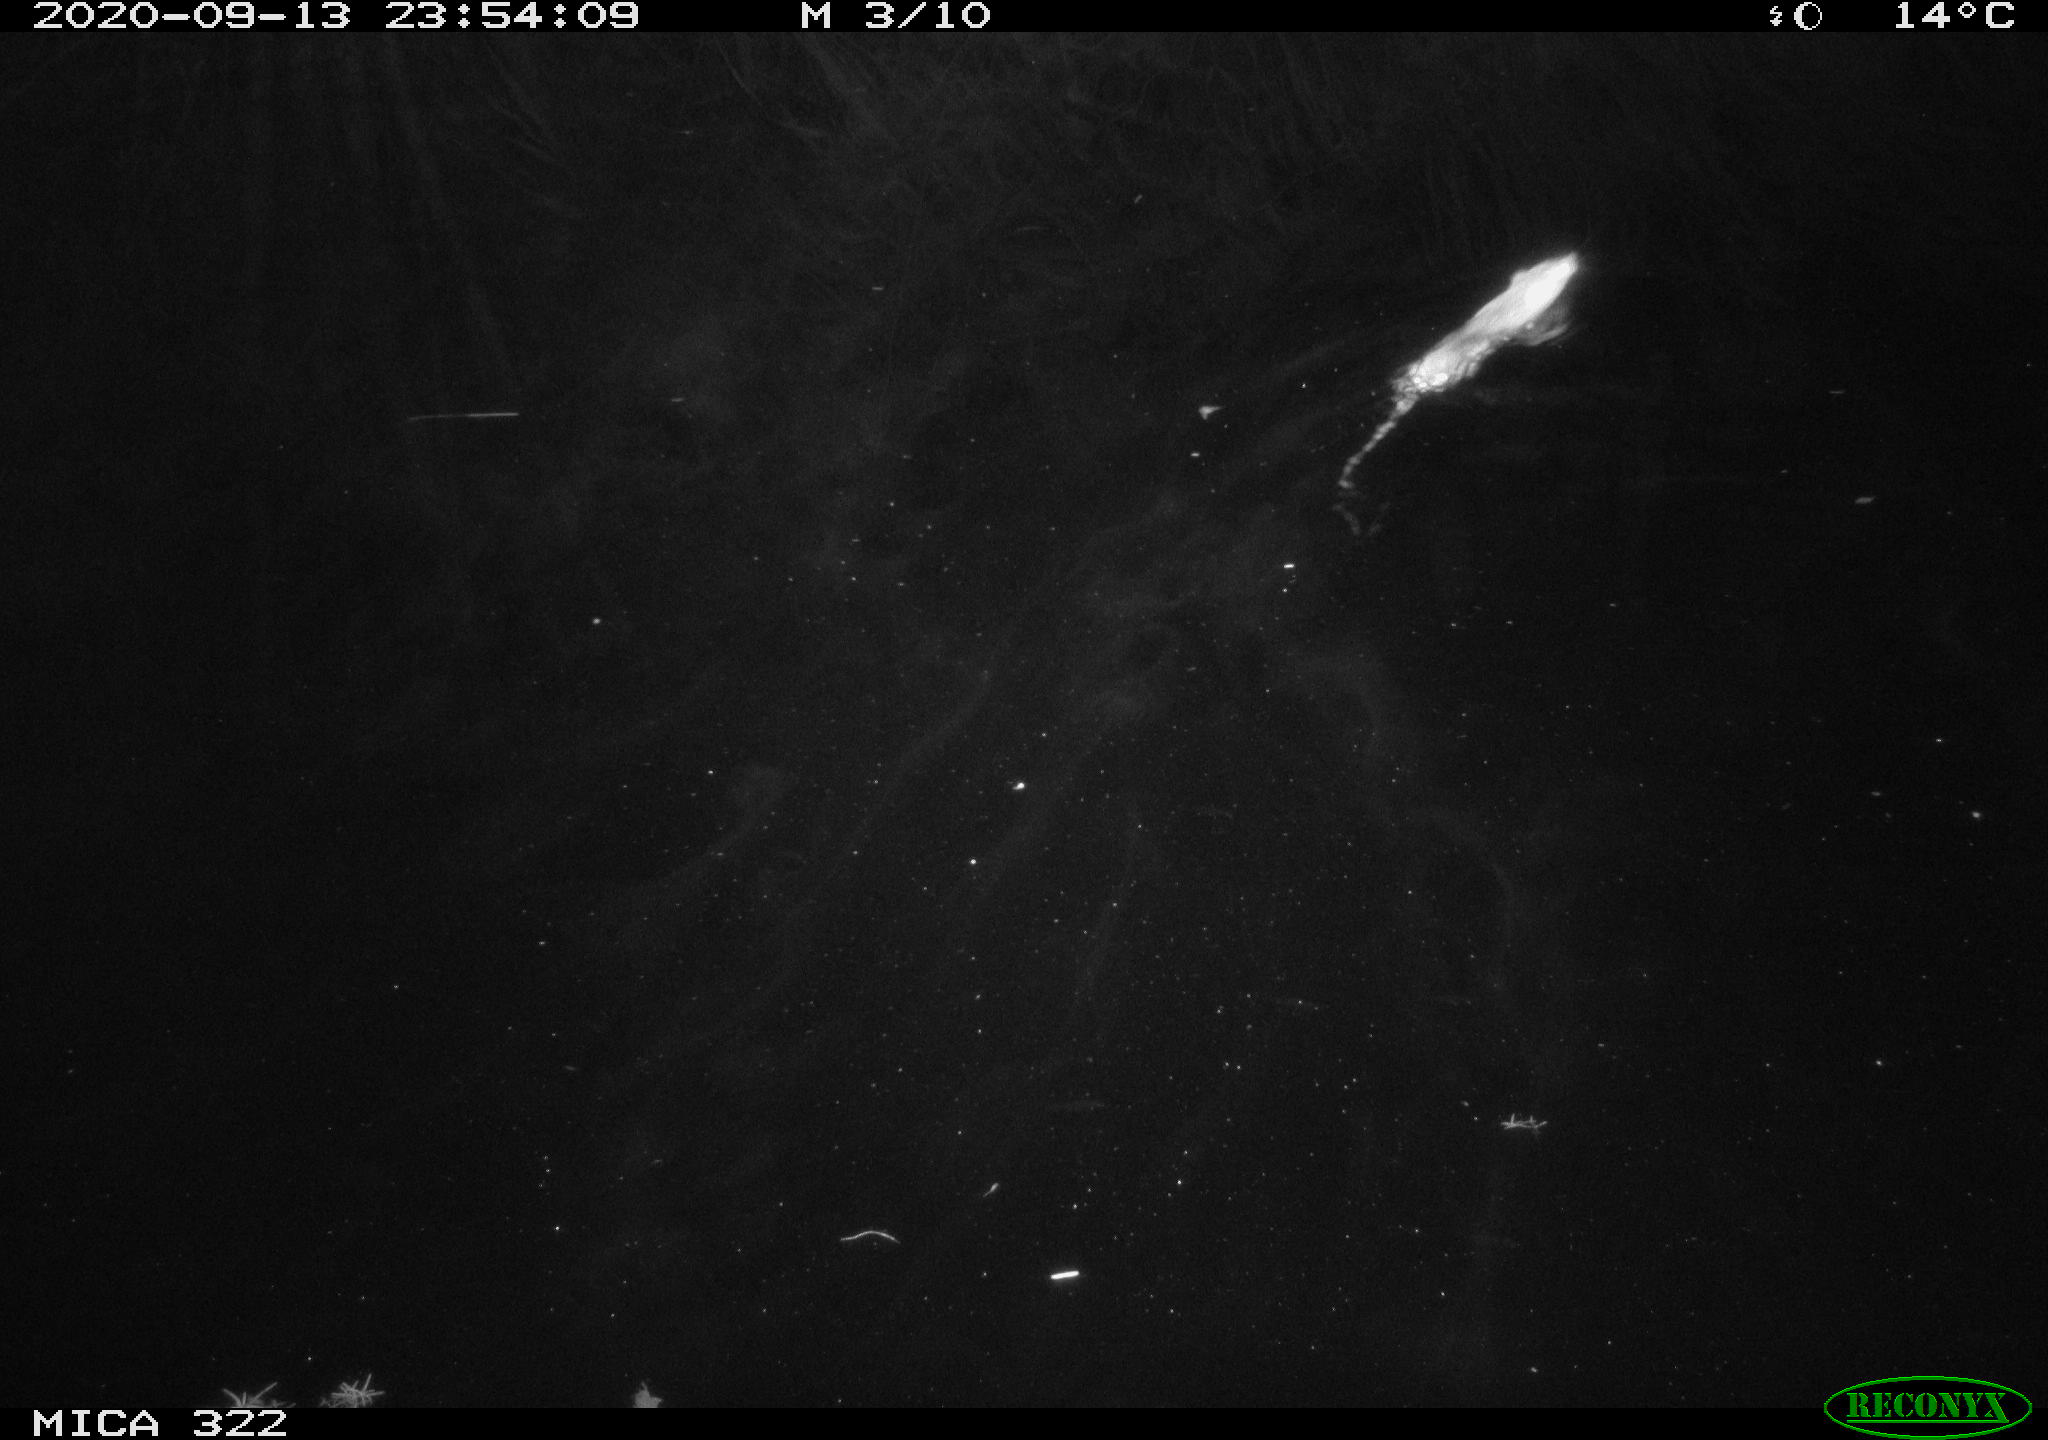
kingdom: Animalia
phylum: Chordata
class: Mammalia
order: Rodentia
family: Muridae
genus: Rattus
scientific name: Rattus norvegicus
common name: Brown rat
